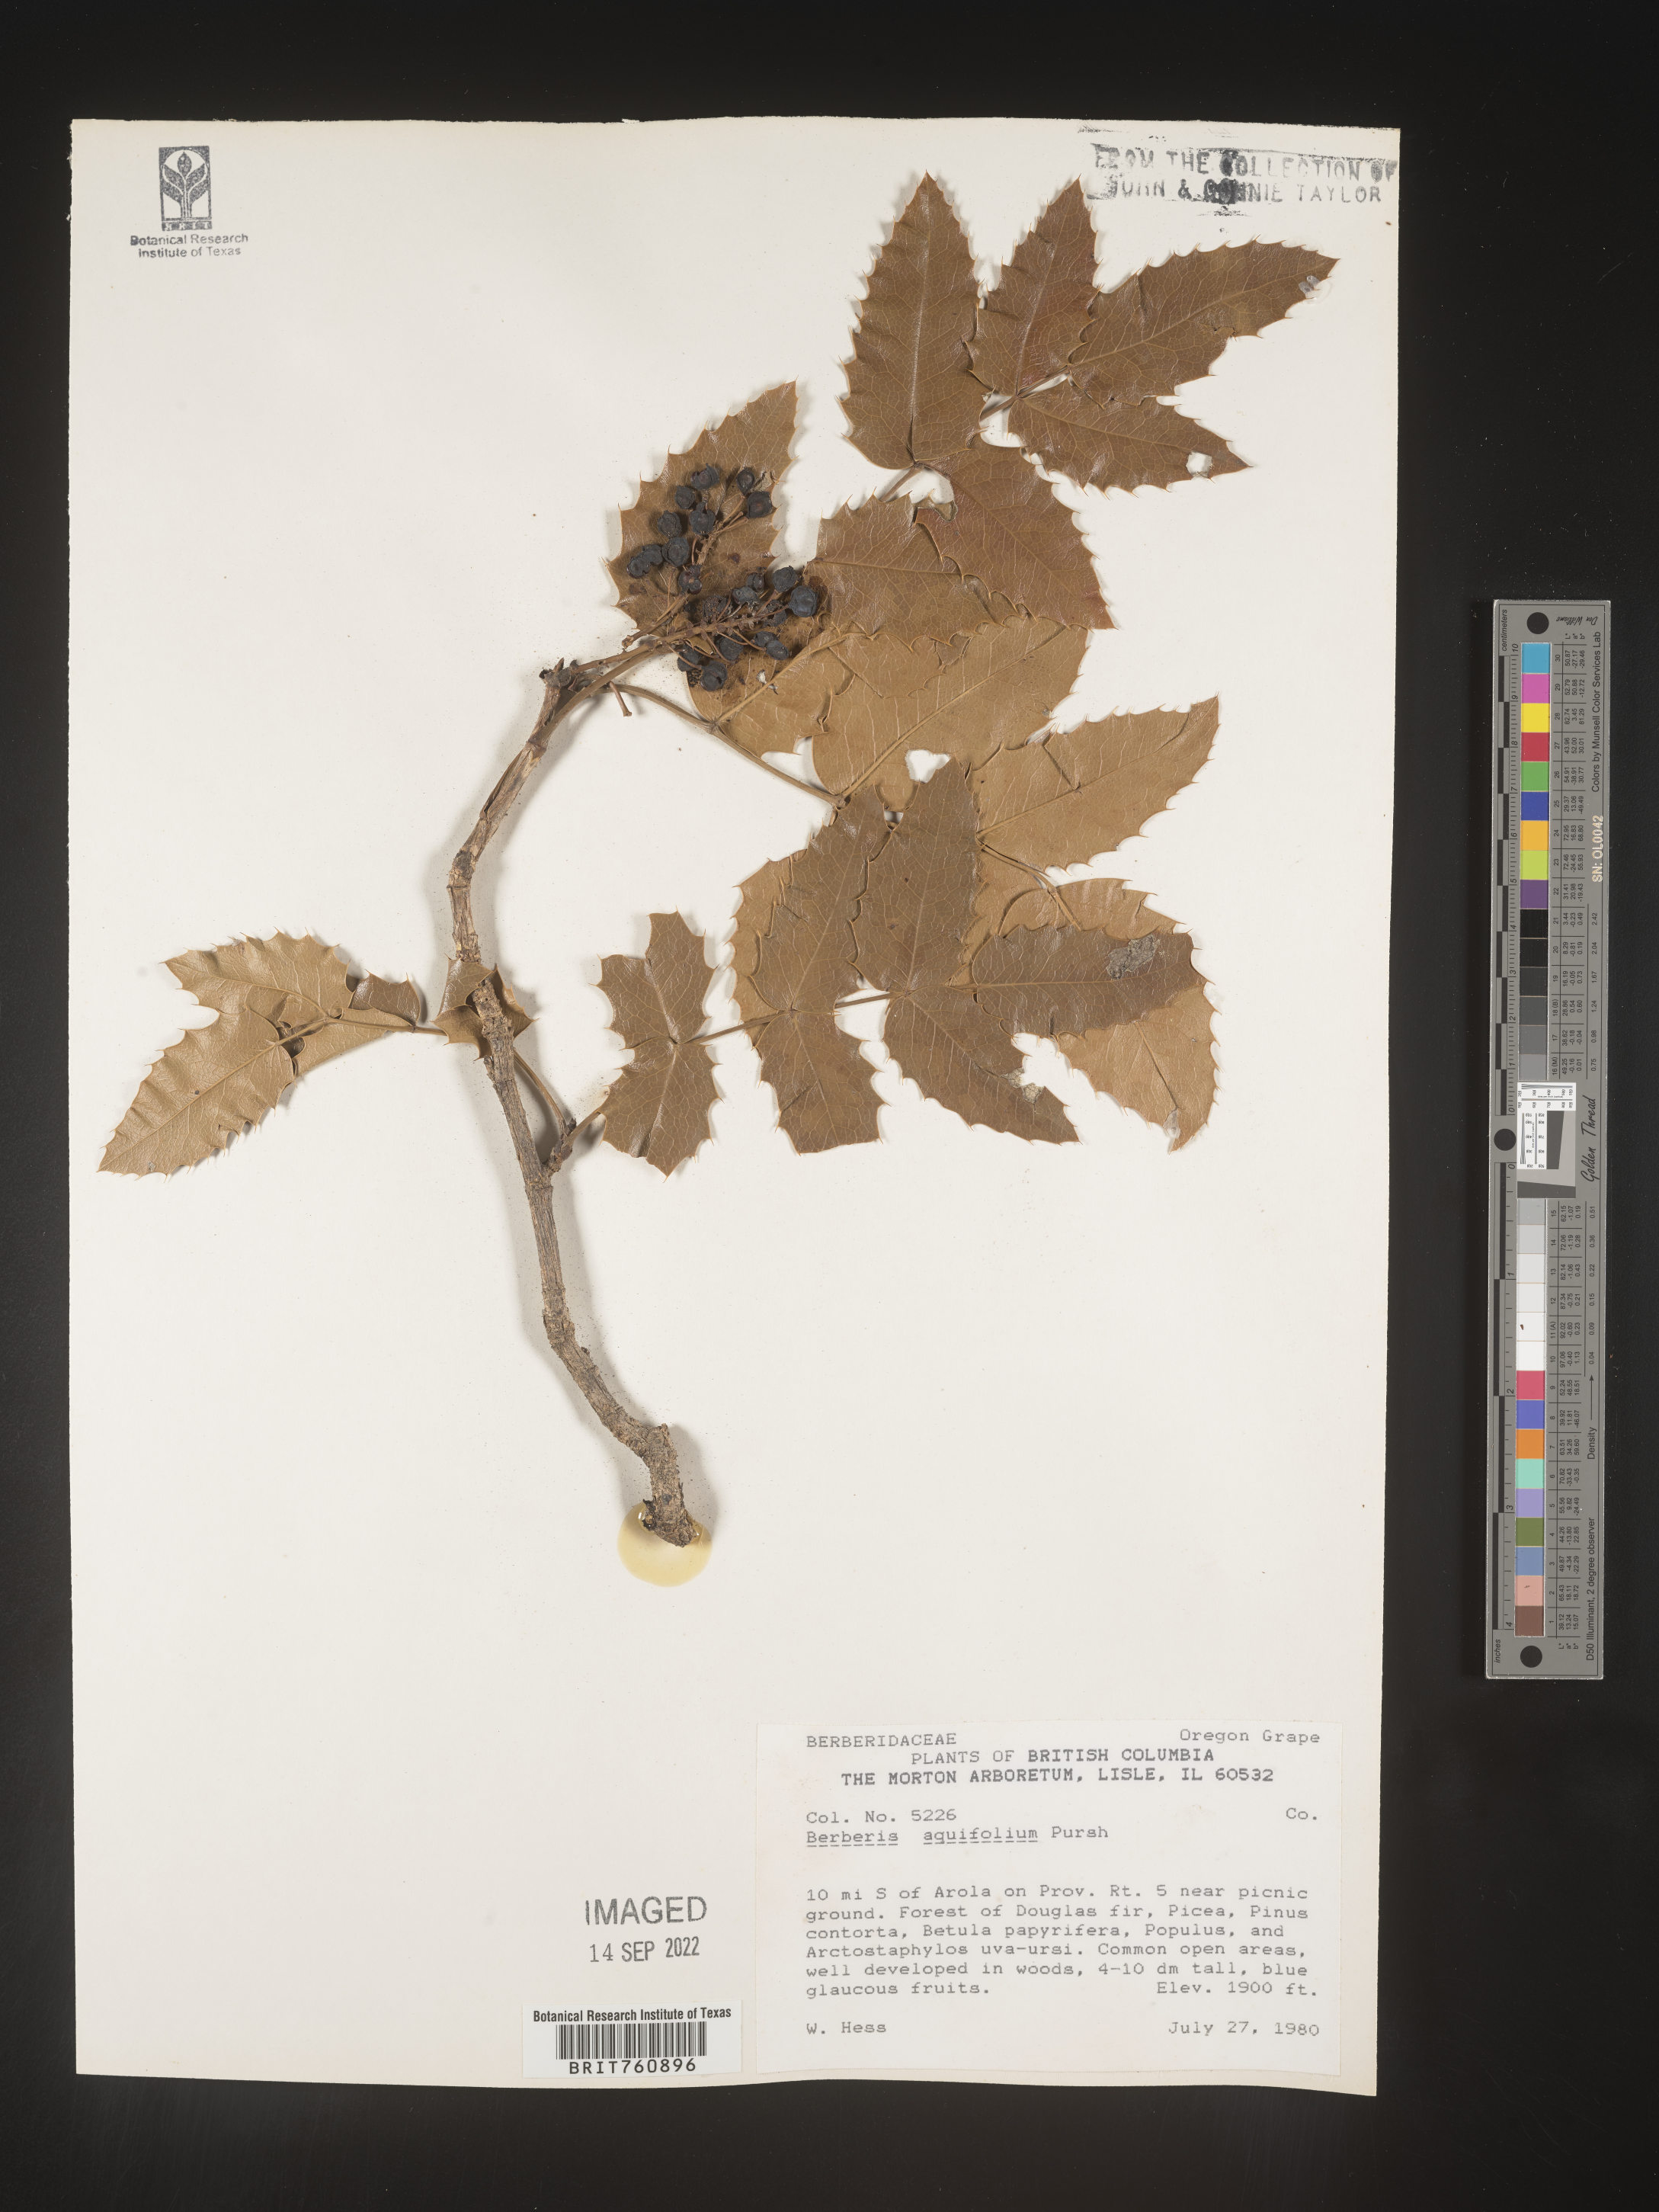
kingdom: Plantae
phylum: Tracheophyta
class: Magnoliopsida
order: Ranunculales
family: Berberidaceae
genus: Mahonia
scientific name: Mahonia aquifolium
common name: Oregon-grape
